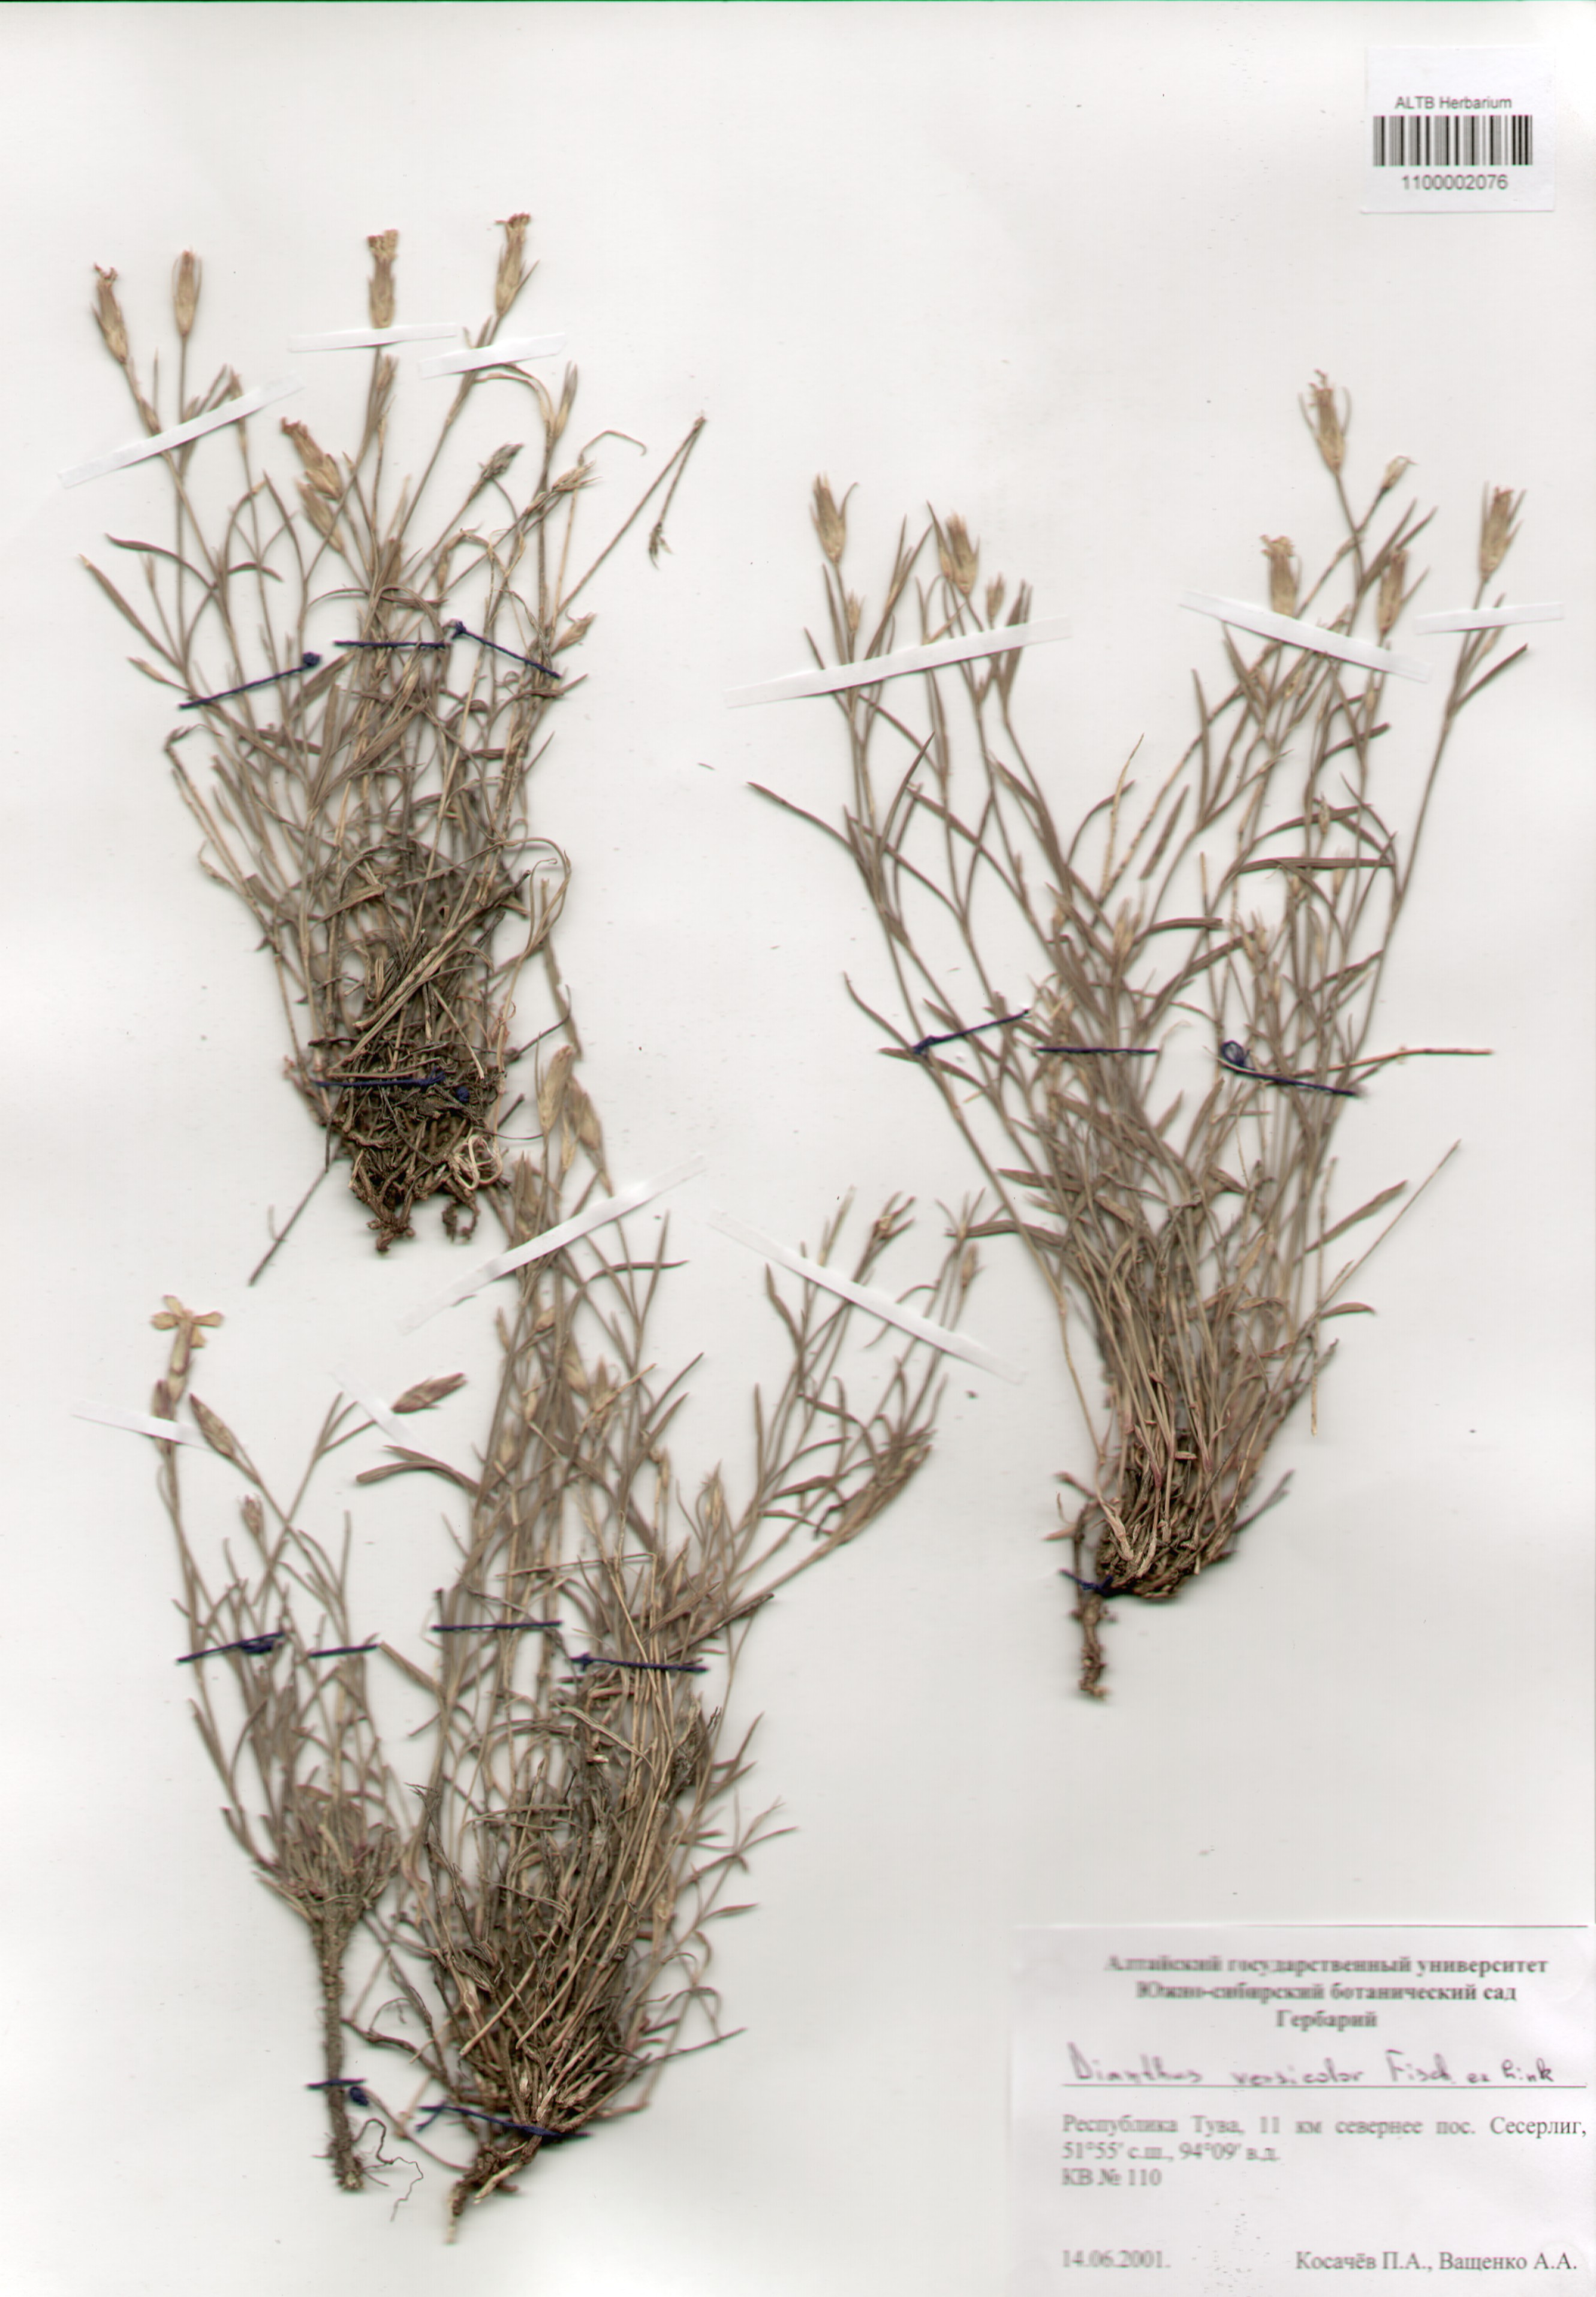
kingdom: Plantae
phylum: Tracheophyta
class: Magnoliopsida
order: Caryophyllales
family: Caryophyllaceae
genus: Dianthus
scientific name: Dianthus chinensis
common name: Rainbow pink
